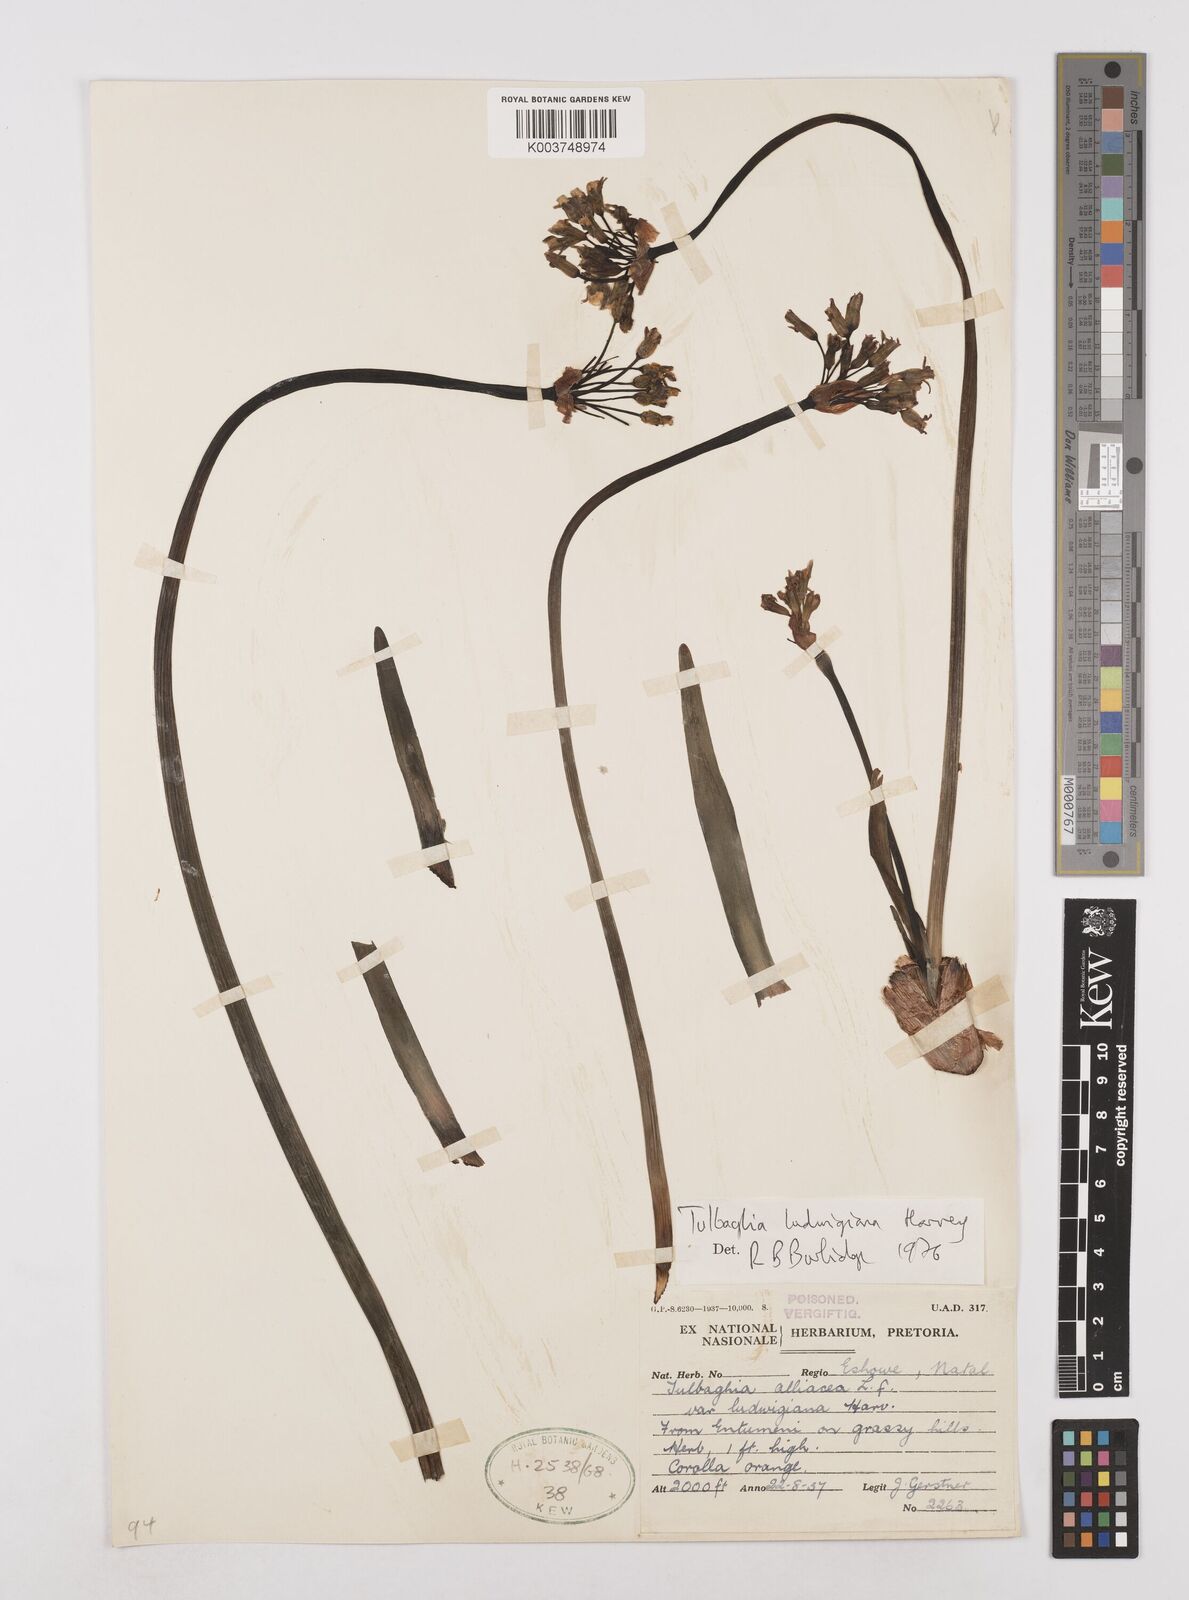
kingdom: Plantae
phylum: Tracheophyta
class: Liliopsida
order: Asparagales
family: Amaryllidaceae
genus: Tulbaghia
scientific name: Tulbaghia ludwigiana
